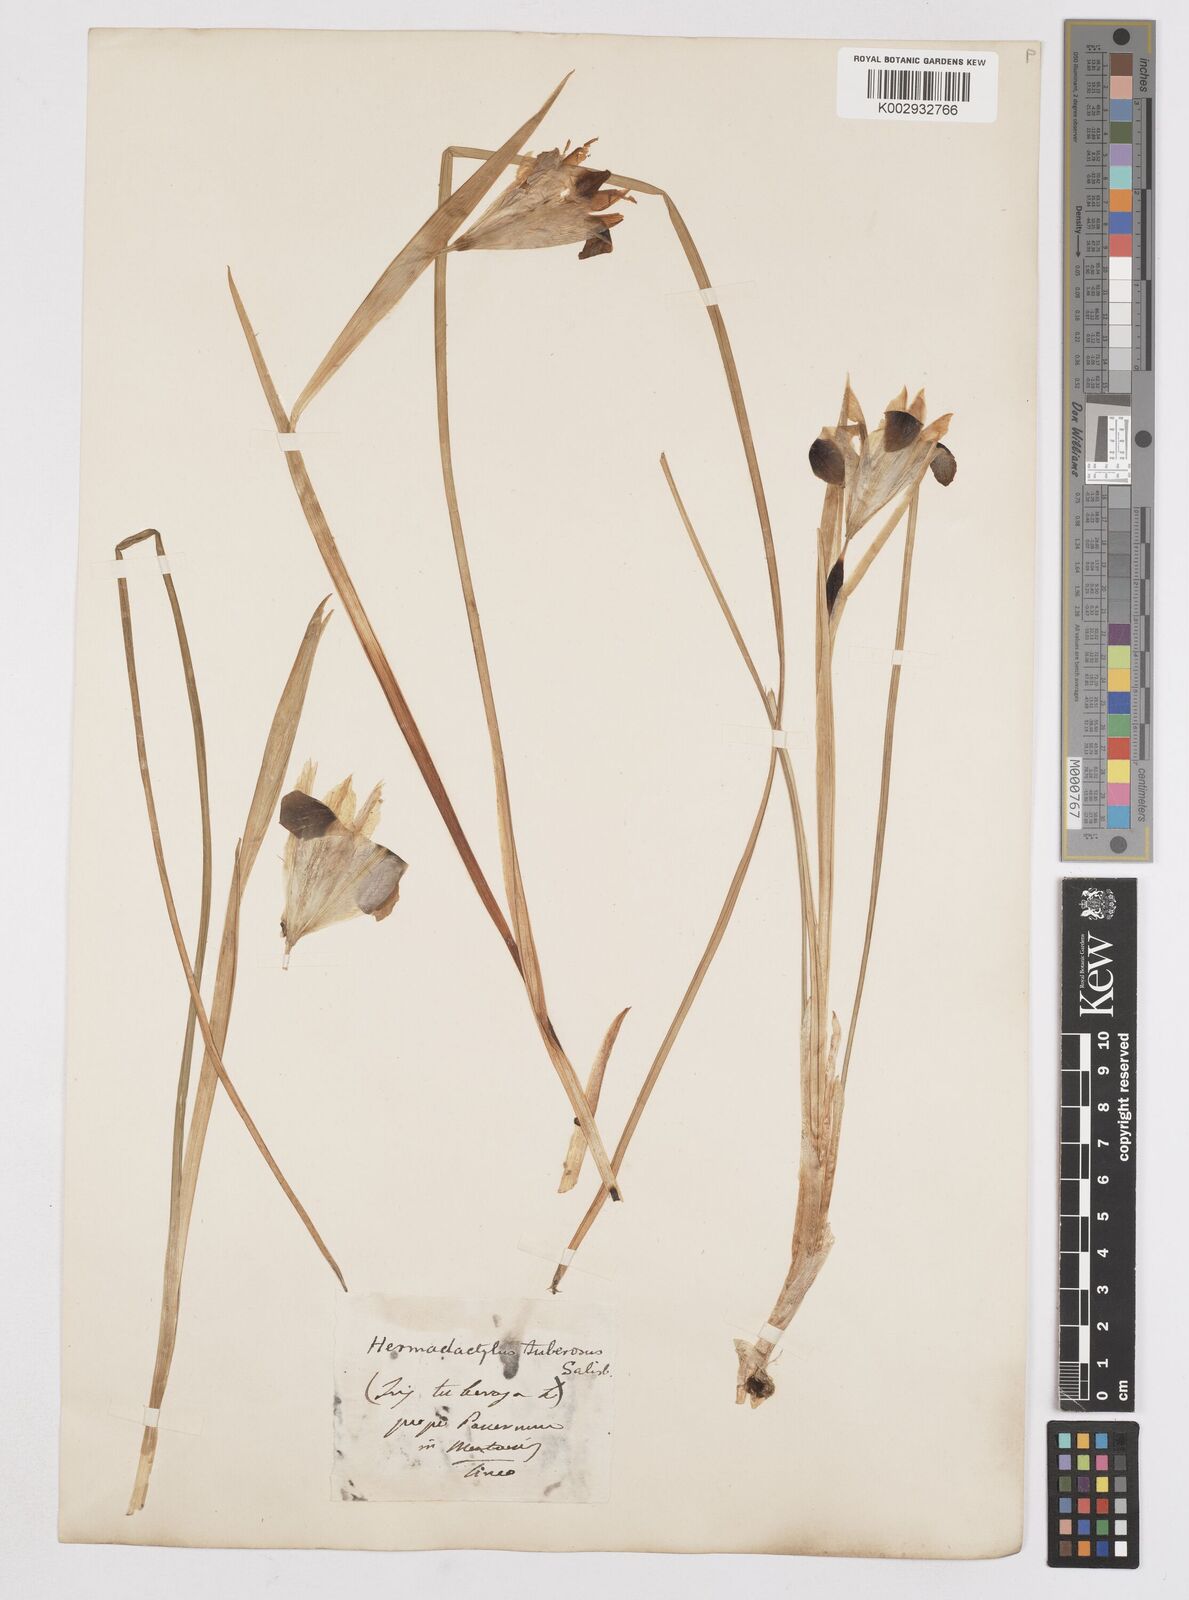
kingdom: Plantae
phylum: Tracheophyta
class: Liliopsida
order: Asparagales
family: Iridaceae
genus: Iris
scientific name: Iris tuberosa
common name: Snake's-head iris
